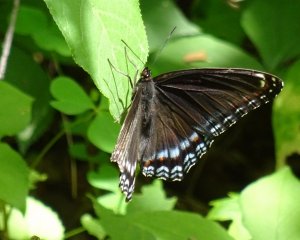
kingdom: Animalia
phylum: Arthropoda
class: Insecta
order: Lepidoptera
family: Nymphalidae
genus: Limenitis
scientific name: Limenitis astyanax
